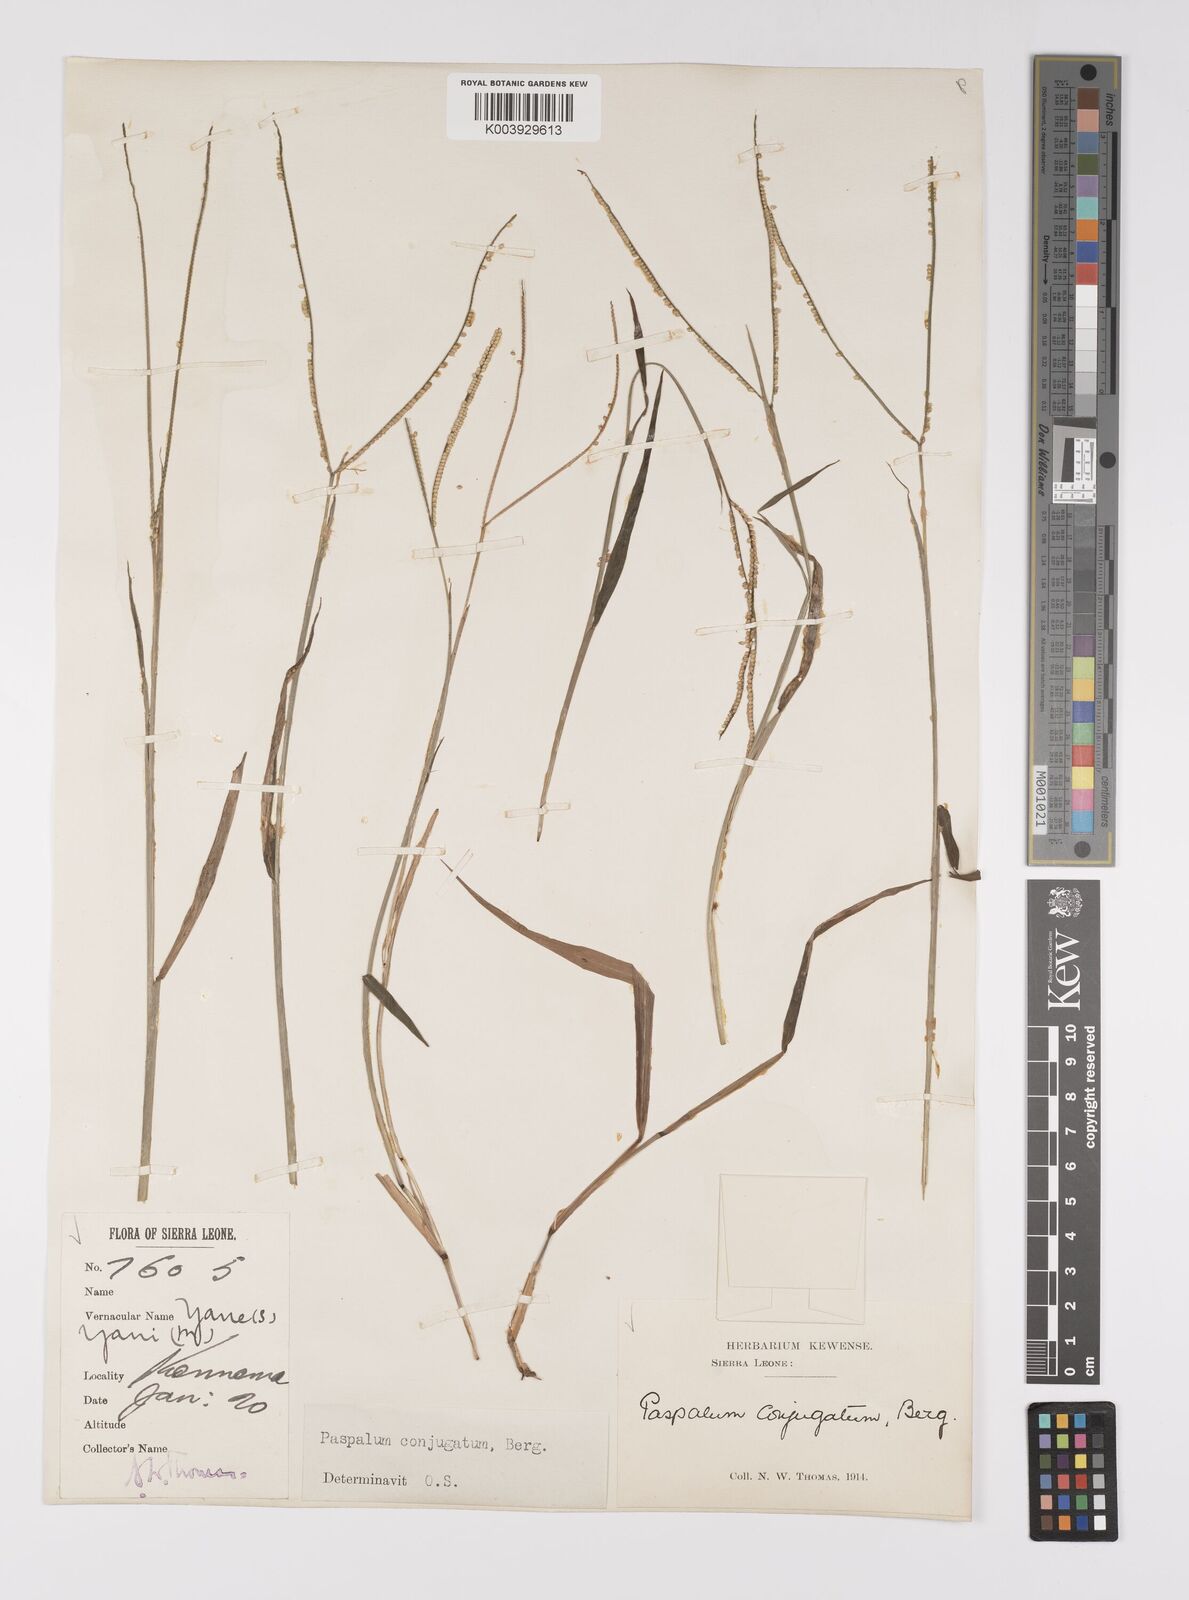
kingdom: Plantae
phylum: Tracheophyta
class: Liliopsida
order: Poales
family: Poaceae
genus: Paspalum
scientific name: Paspalum conjugatum
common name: Hilograss
